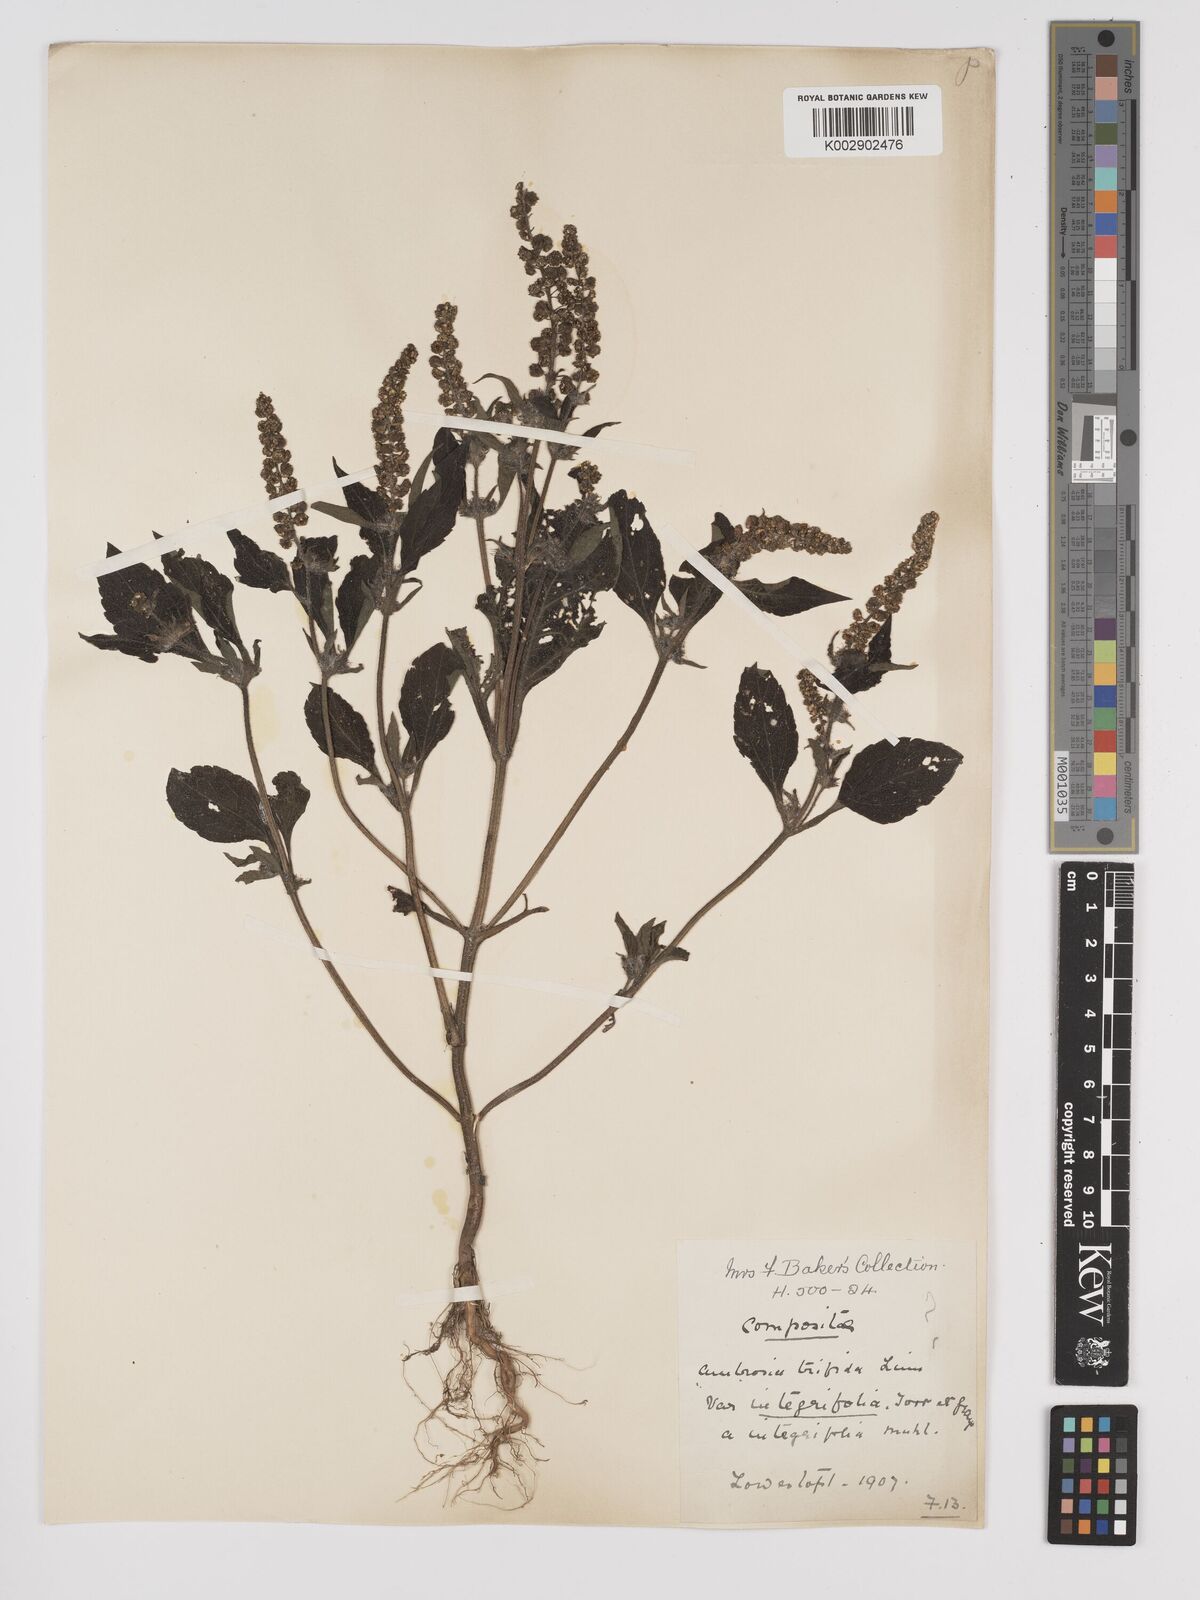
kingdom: Plantae
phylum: Tracheophyta
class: Magnoliopsida
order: Asterales
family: Asteraceae
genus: Ambrosia
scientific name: Ambrosia trifida
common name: Giant ragweed
